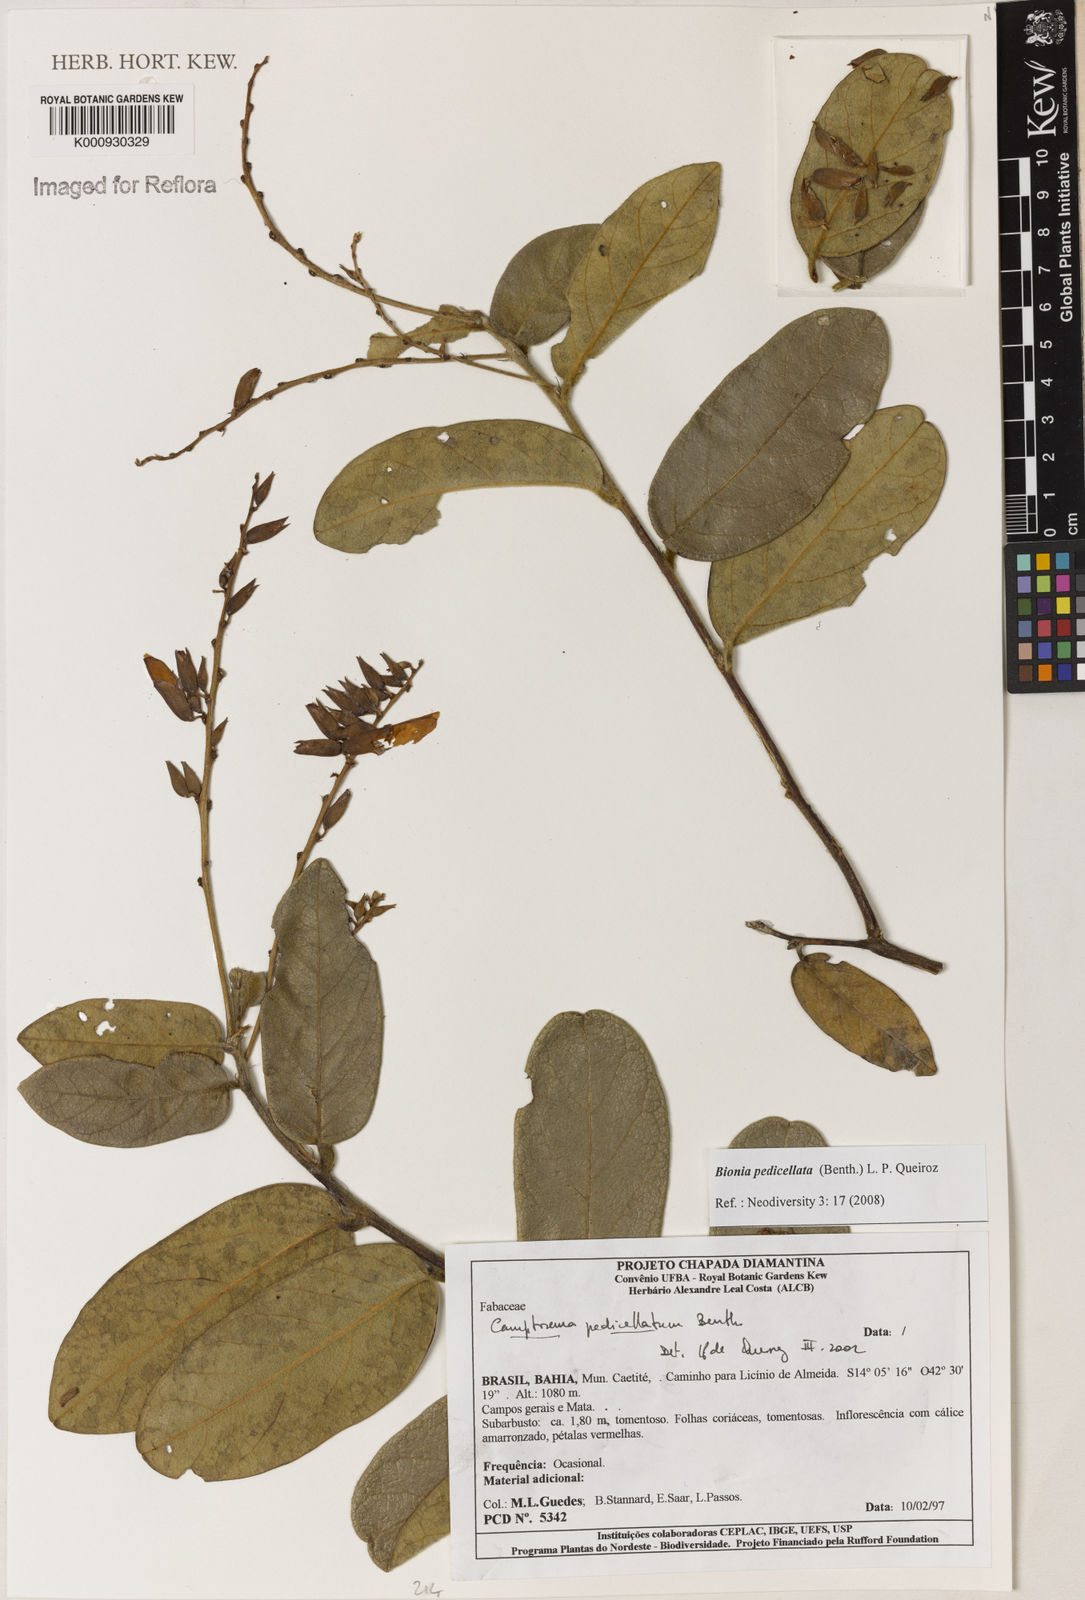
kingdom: Plantae
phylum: Tracheophyta
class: Magnoliopsida
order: Fabales
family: Fabaceae
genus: Camptosema
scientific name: Camptosema pedicellatum
